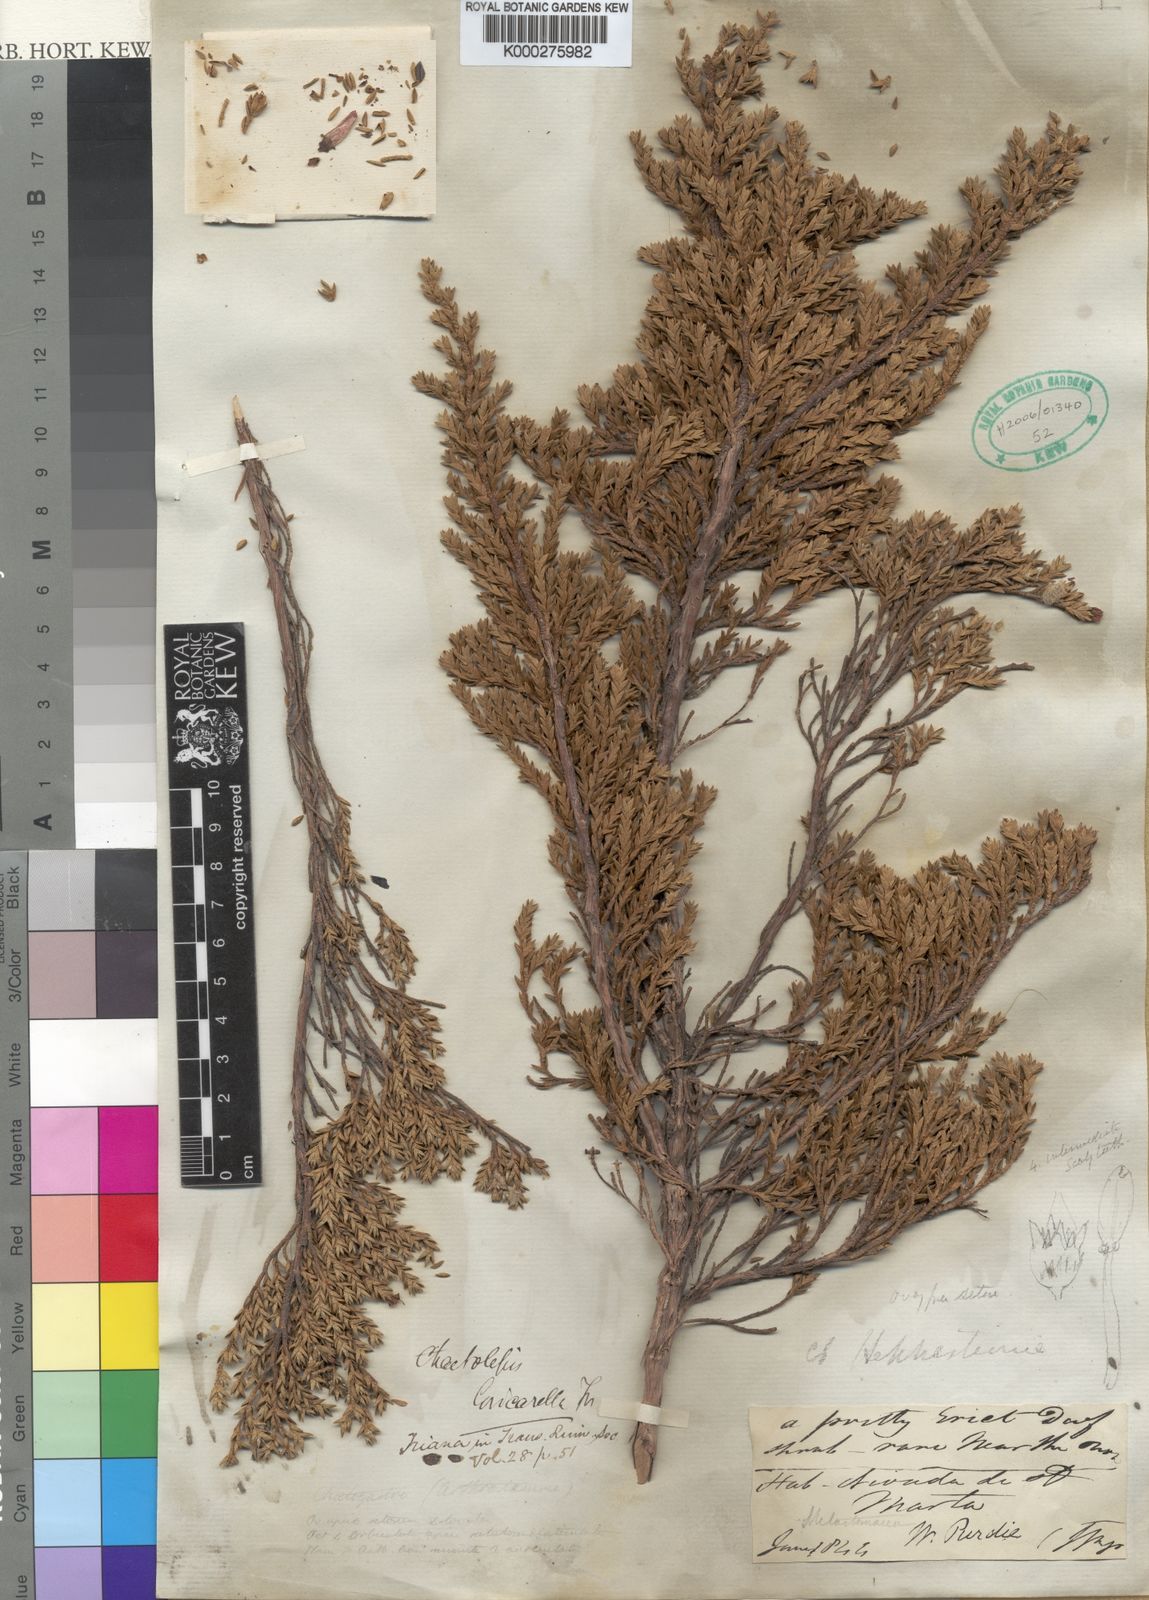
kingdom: Plantae
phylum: Tracheophyta
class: Magnoliopsida
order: Myrtales
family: Melastomataceae
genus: Chaetolepis
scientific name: Chaetolepis loricarella
